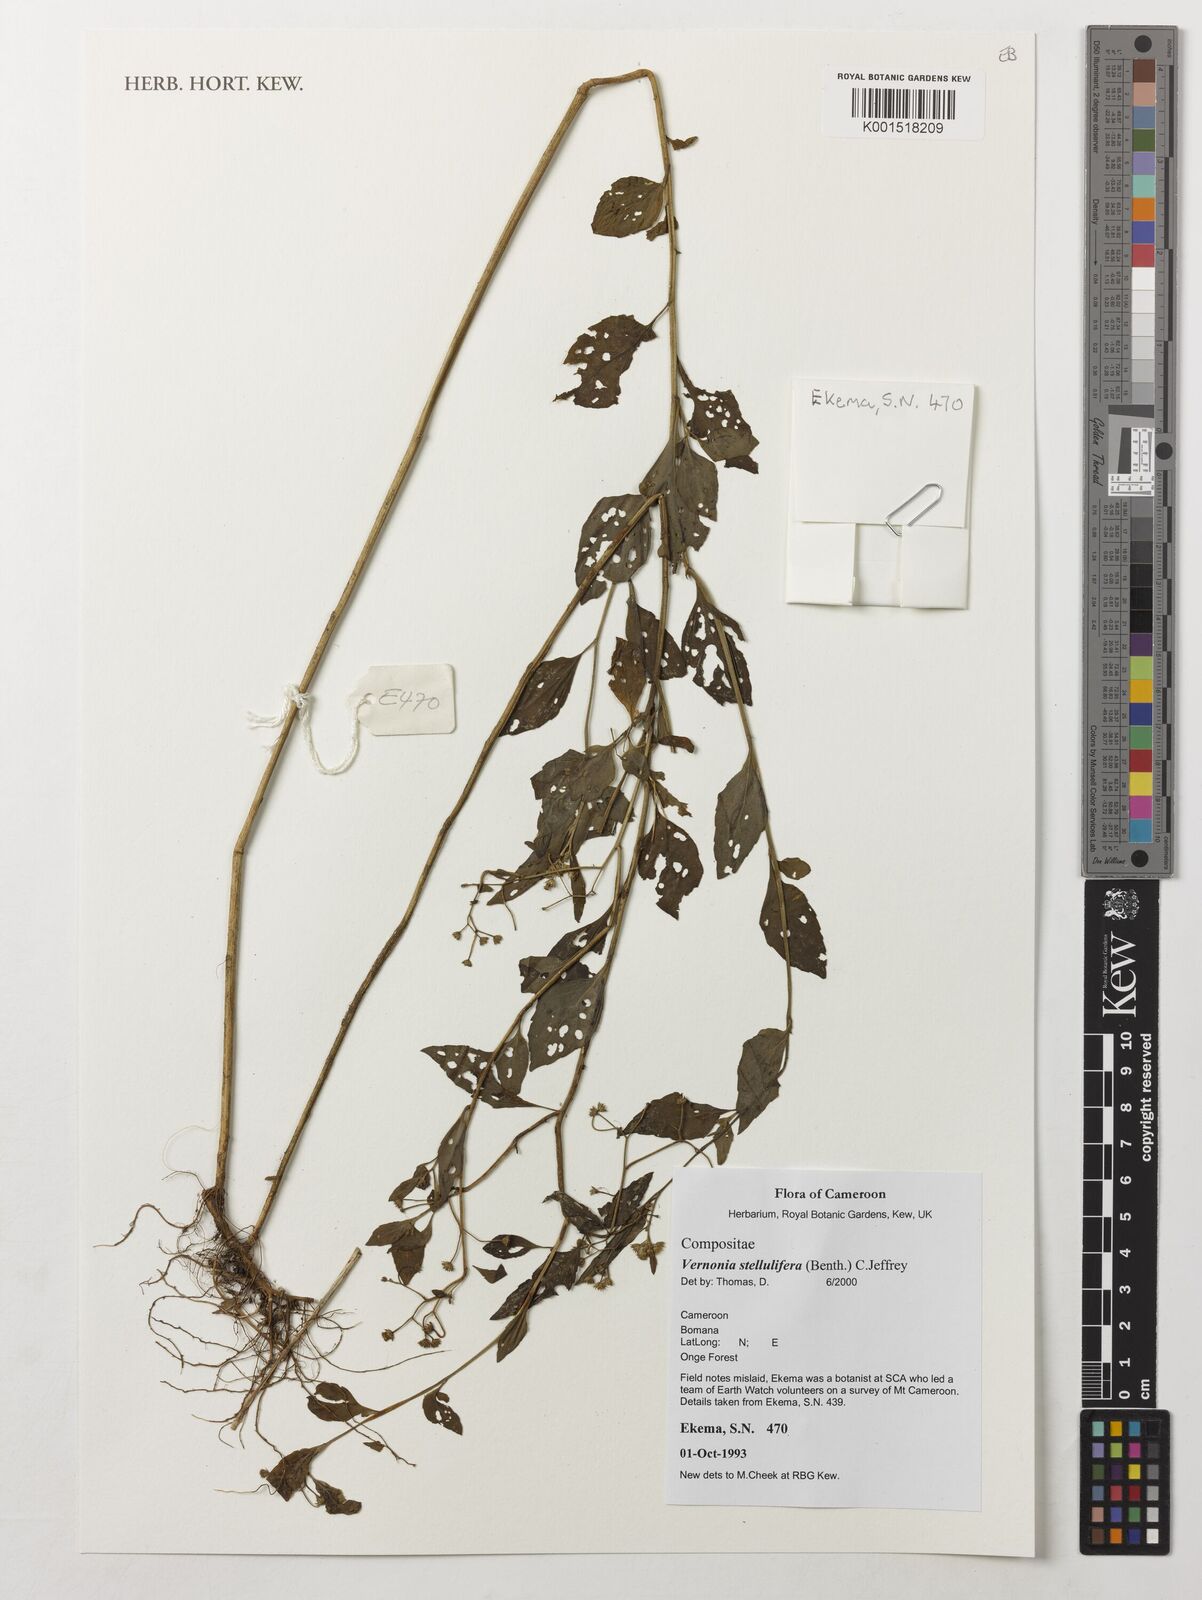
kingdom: Plantae
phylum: Tracheophyta
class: Magnoliopsida
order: Asterales
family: Asteraceae
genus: Cyanthillium
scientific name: Cyanthillium stelluliferum
